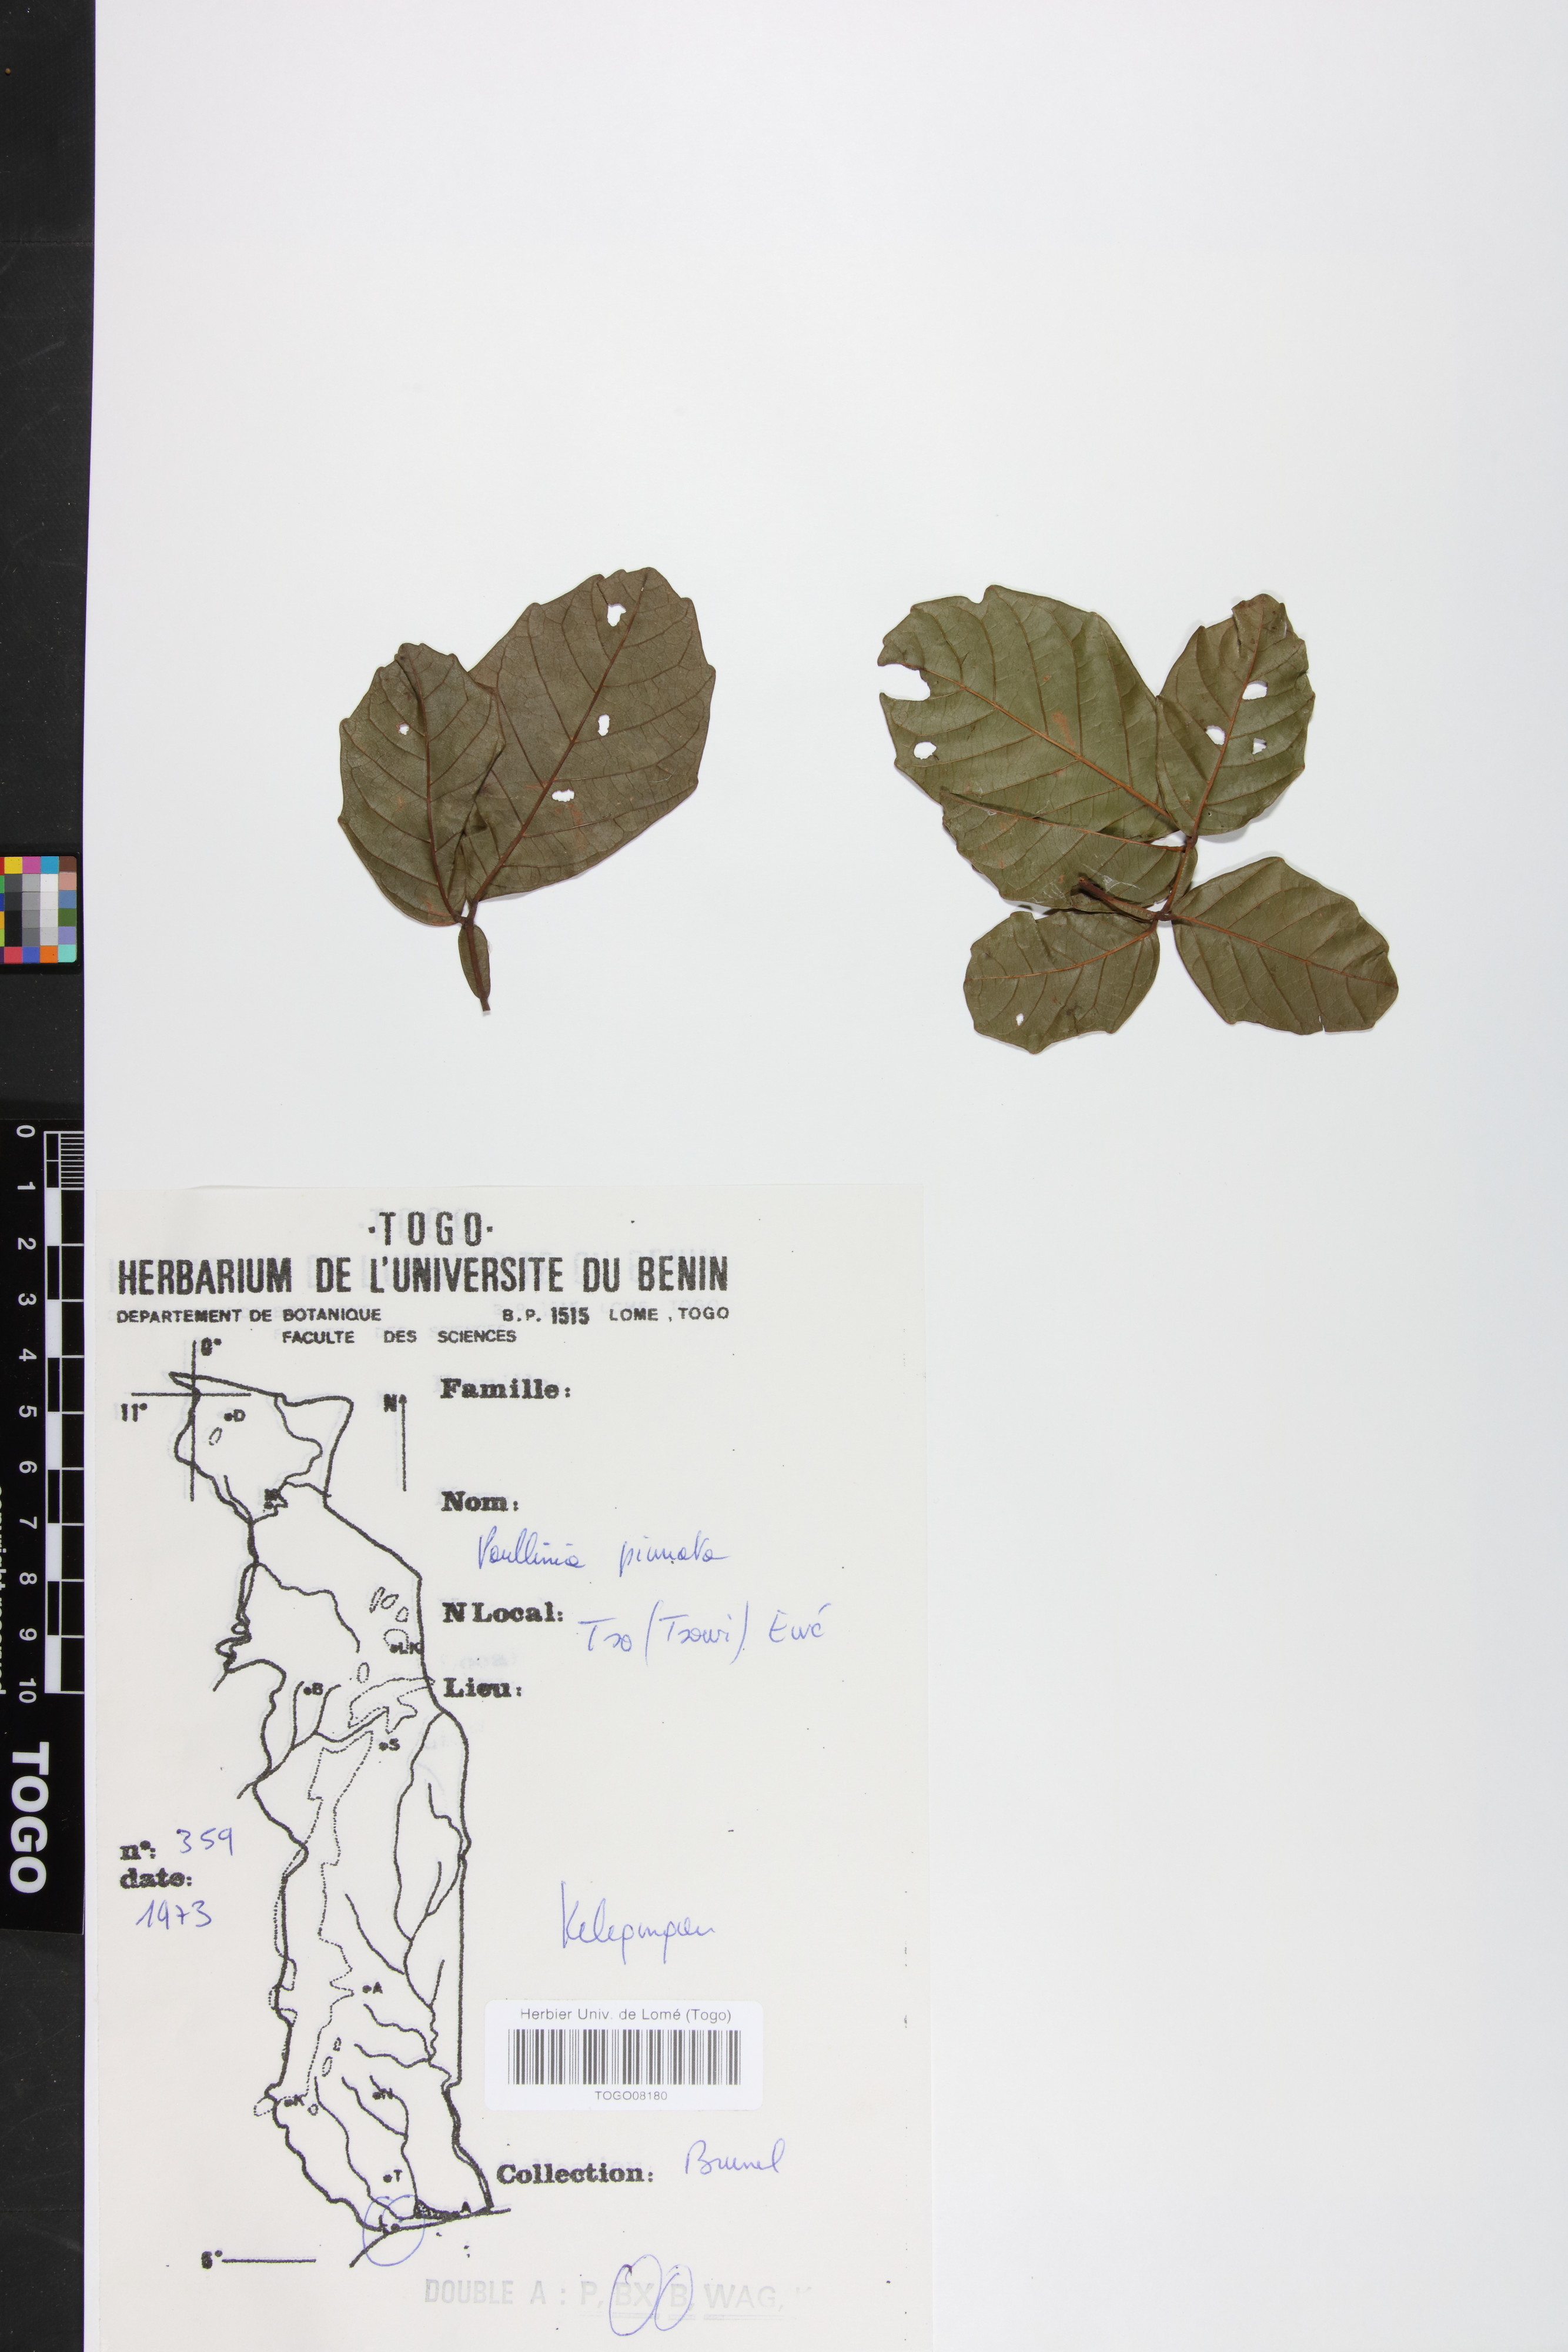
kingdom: Plantae
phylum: Tracheophyta
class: Magnoliopsida
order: Sapindales
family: Sapindaceae
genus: Paullinia
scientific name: Paullinia pinnata
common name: Barbasco
